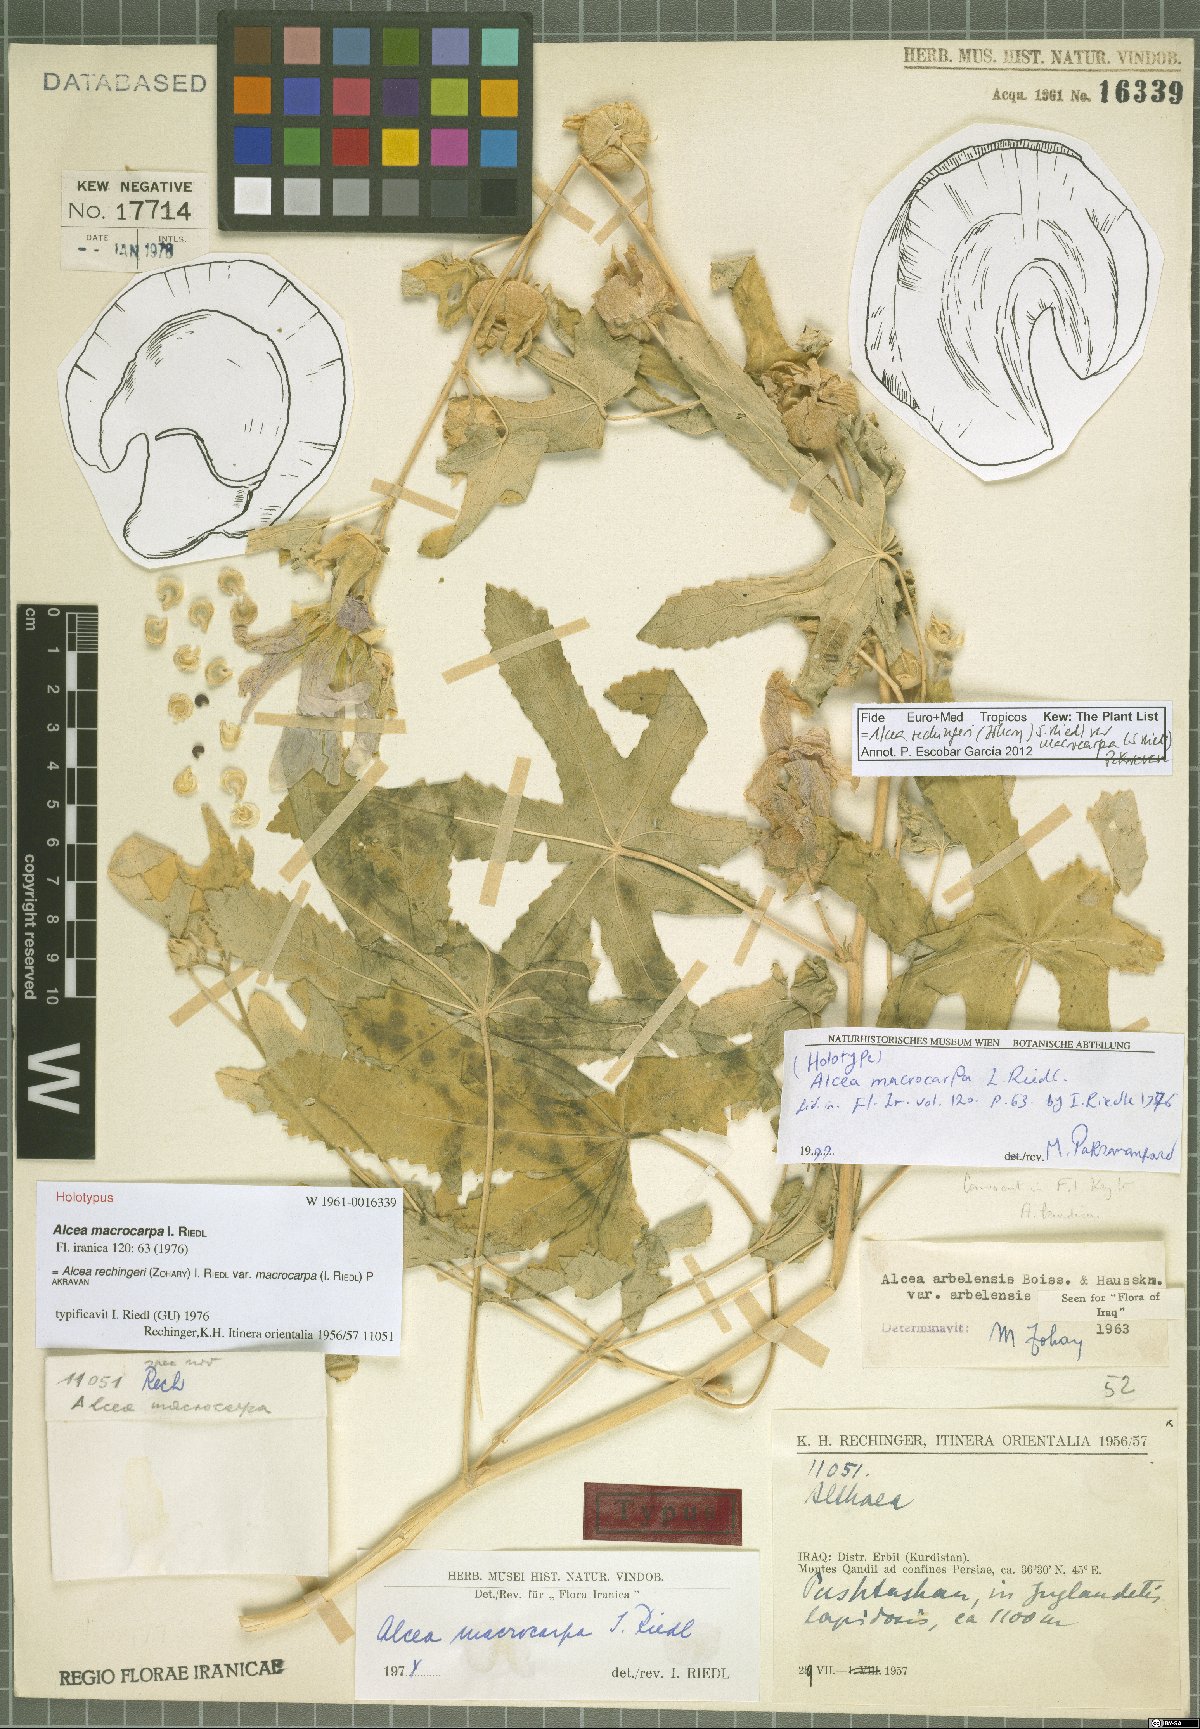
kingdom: Plantae
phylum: Tracheophyta
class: Magnoliopsida
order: Malvales
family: Malvaceae
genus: Alcea
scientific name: Alcea rechingeri
